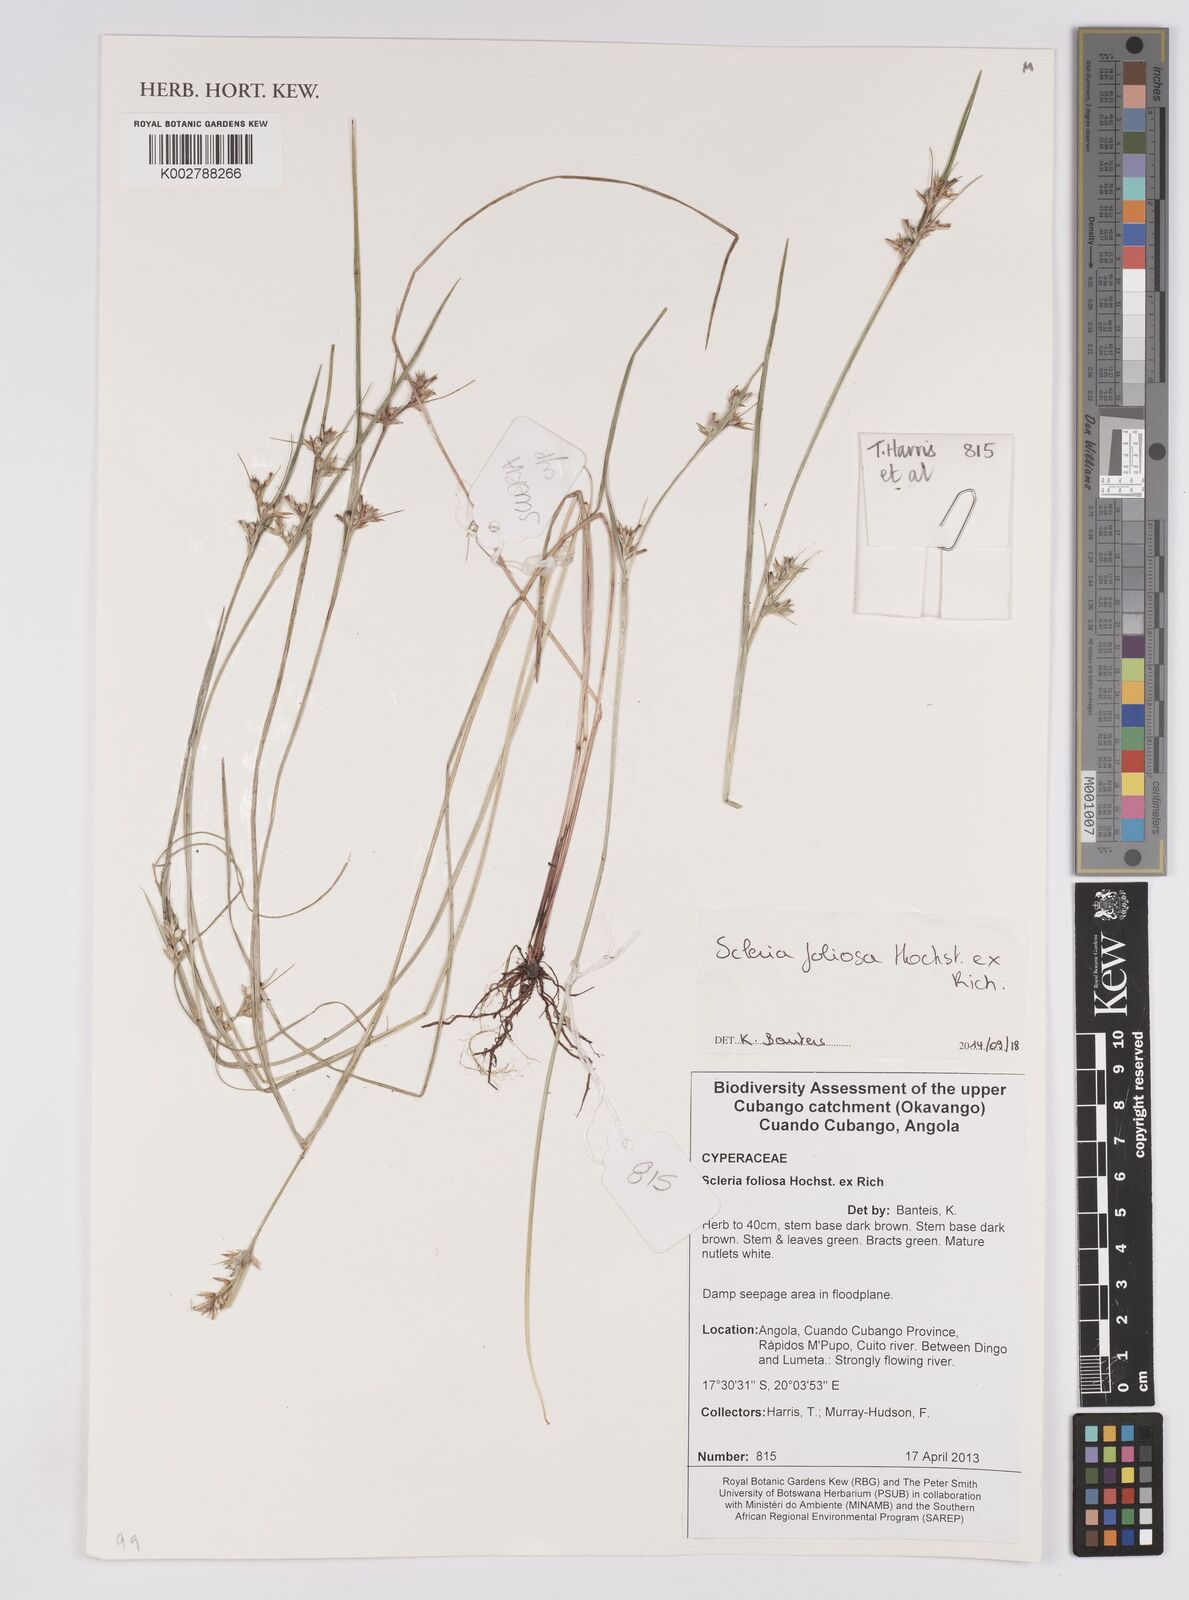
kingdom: Plantae
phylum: Tracheophyta
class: Liliopsida
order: Poales
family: Cyperaceae
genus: Scleria
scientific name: Scleria foliosa
